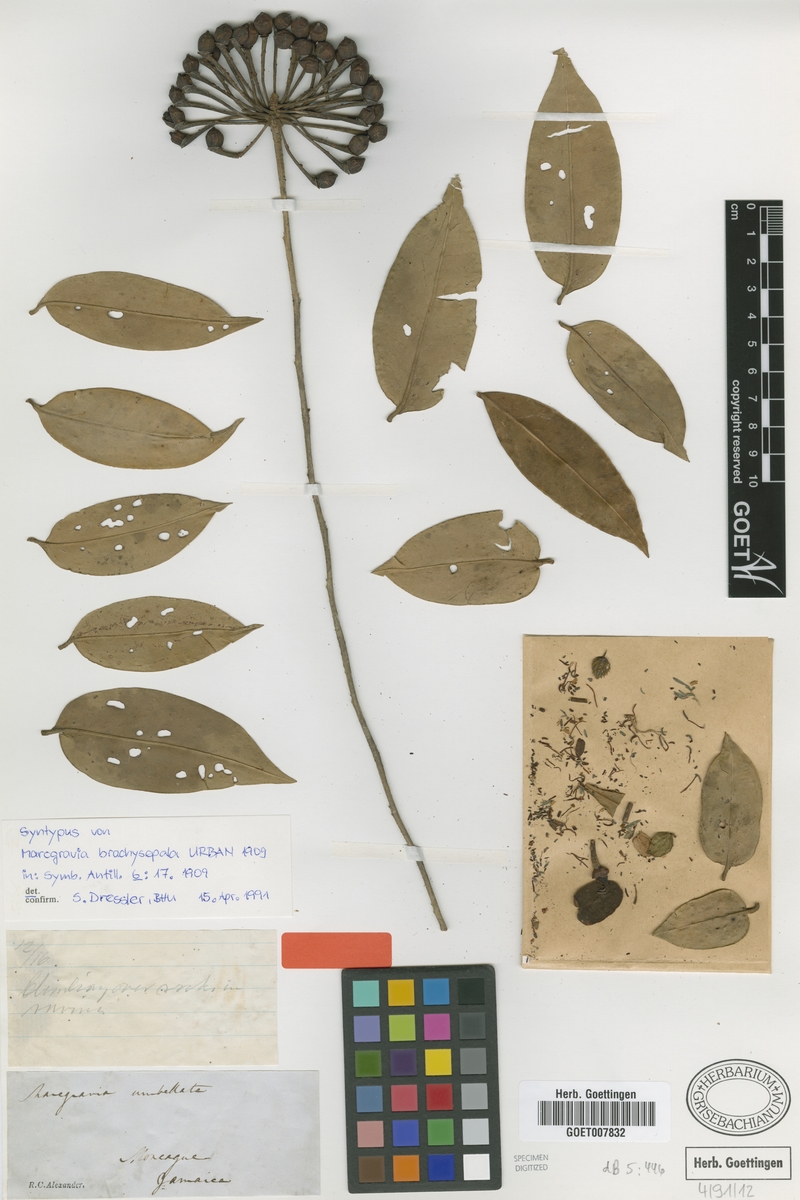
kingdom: Plantae
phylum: Tracheophyta
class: Magnoliopsida
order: Ericales
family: Marcgraviaceae
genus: Marcgravia
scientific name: Marcgravia brachysepala
